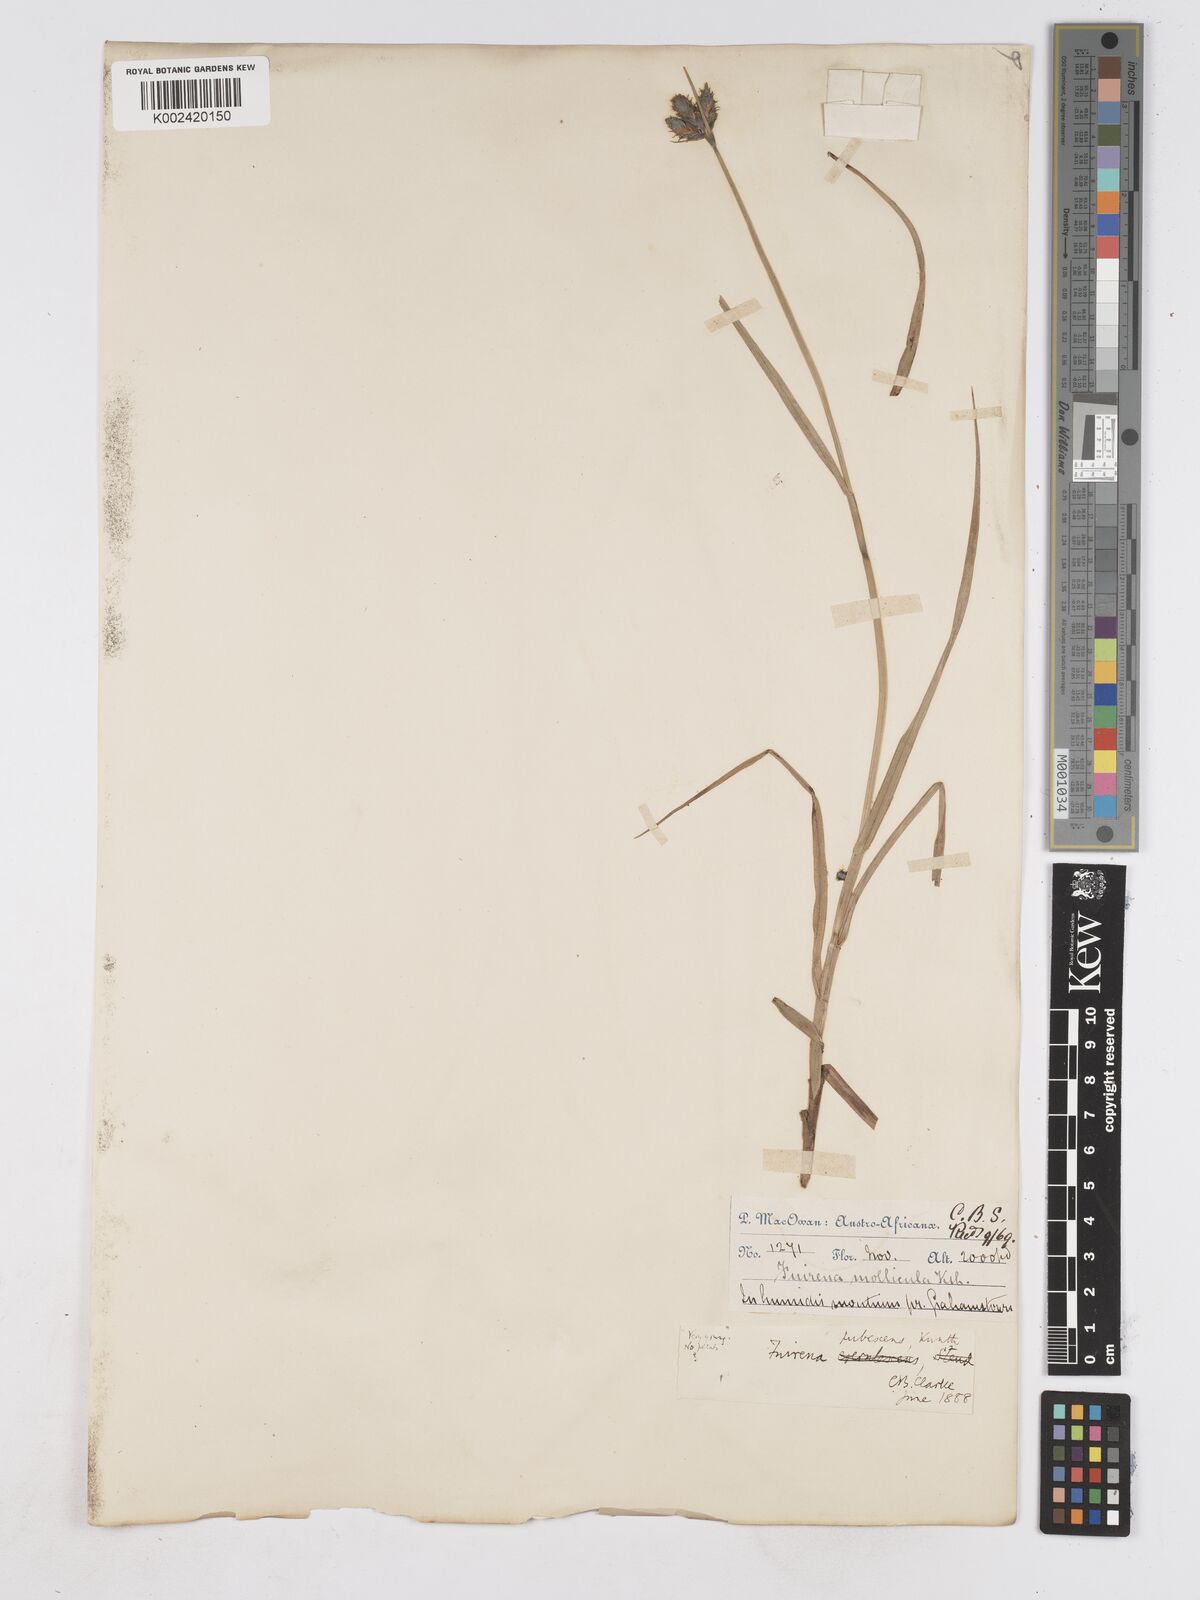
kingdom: Plantae
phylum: Tracheophyta
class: Liliopsida
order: Poales
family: Cyperaceae
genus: Fuirena
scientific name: Fuirena pubescens
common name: Hairy sedge
